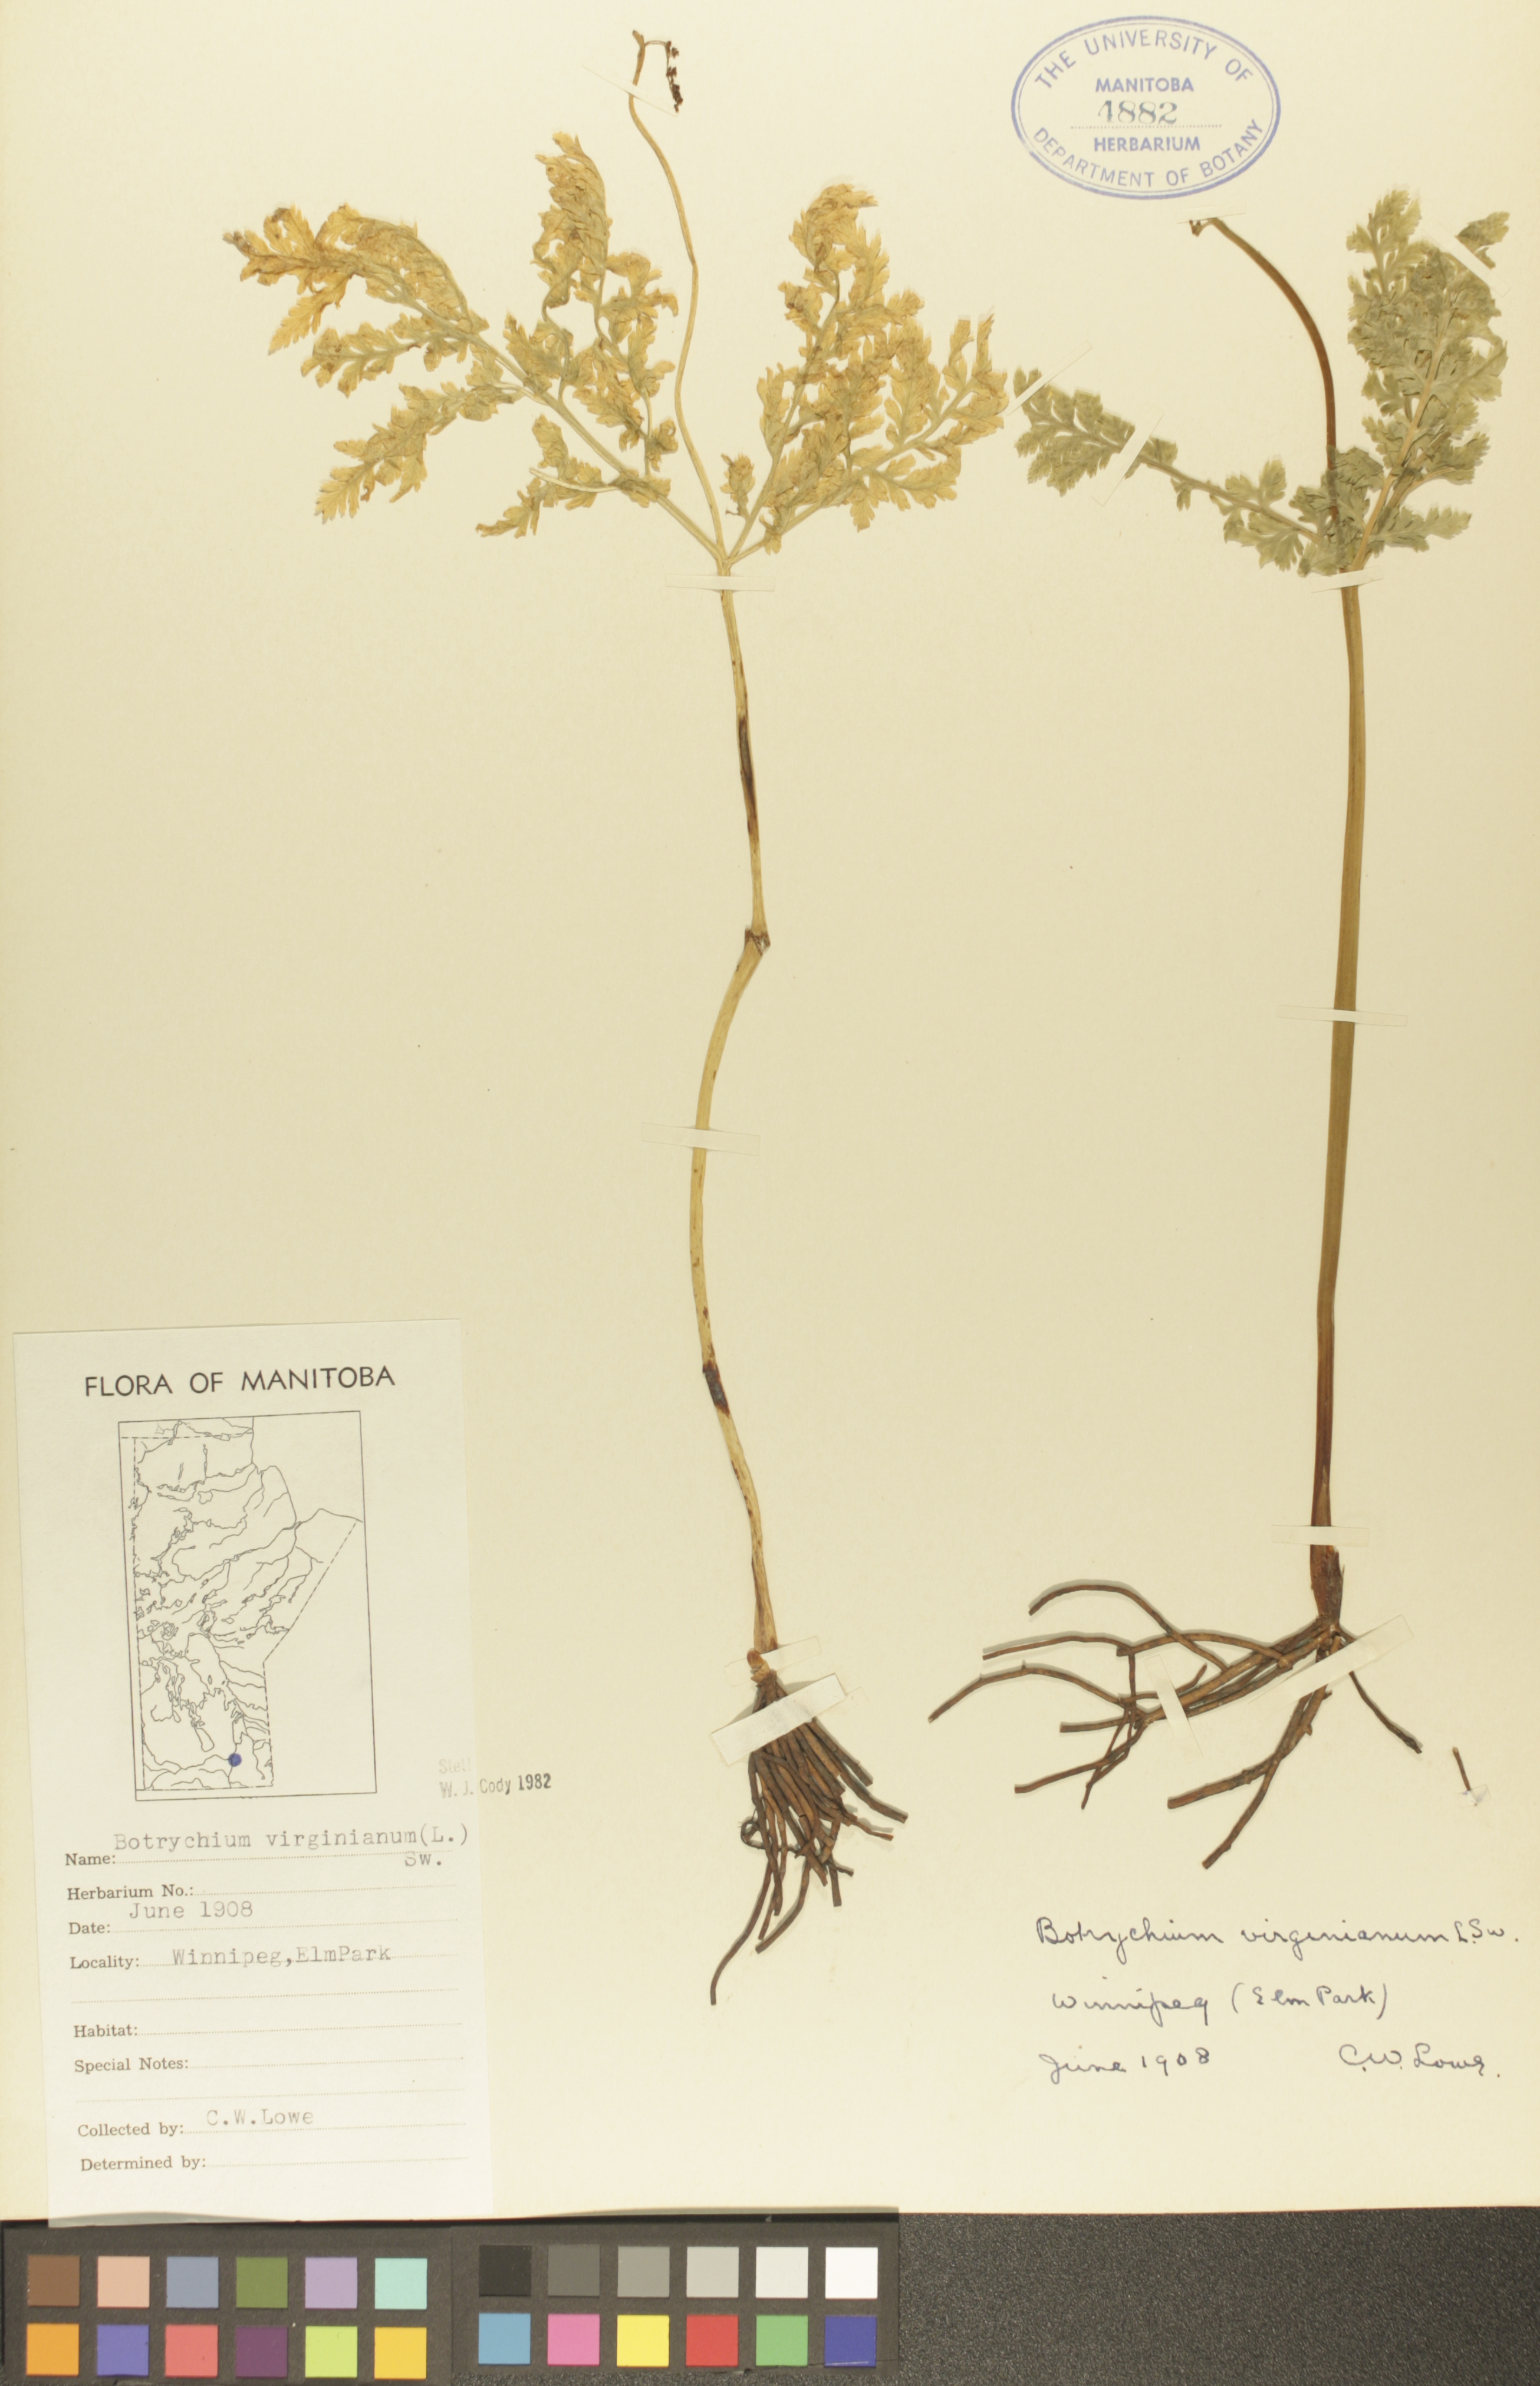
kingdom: Plantae
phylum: Tracheophyta
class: Polypodiopsida
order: Ophioglossales
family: Ophioglossaceae
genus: Botrypus
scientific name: Botrypus virginianus
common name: Common grapefern
